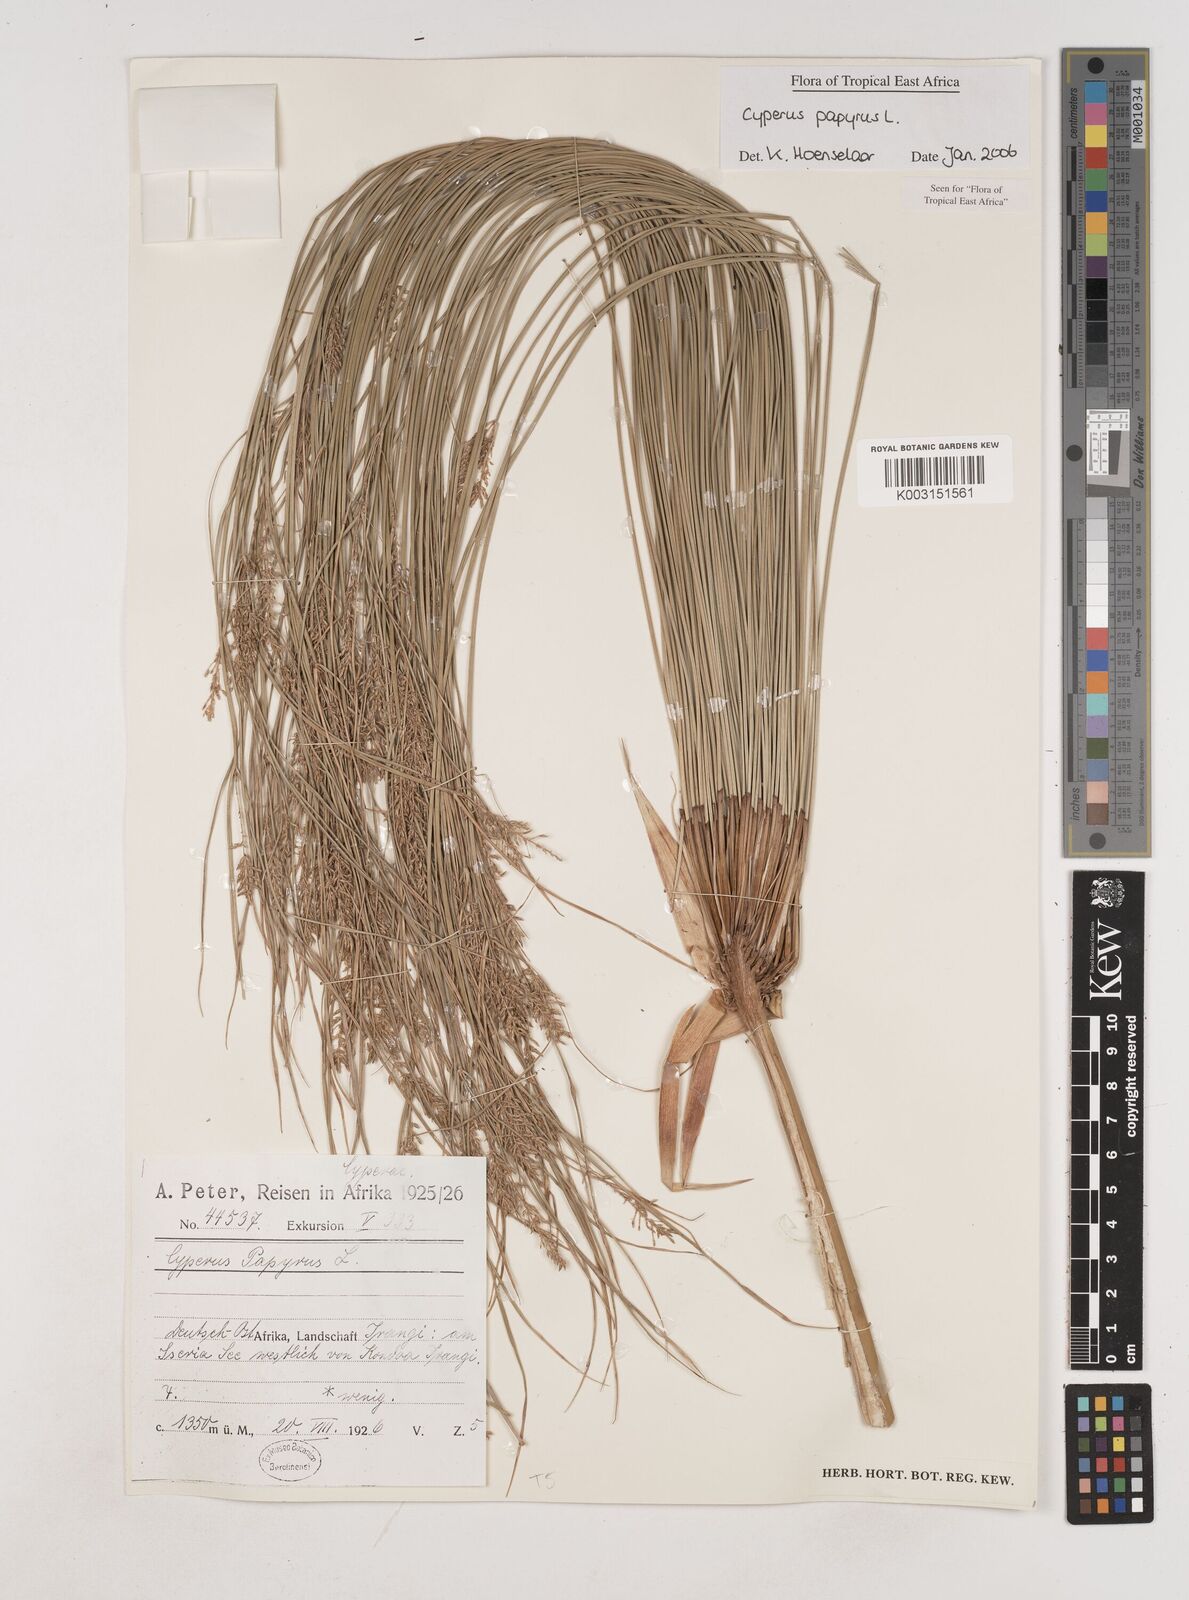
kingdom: Plantae
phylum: Tracheophyta
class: Liliopsida
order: Poales
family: Cyperaceae
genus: Cyperus
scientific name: Cyperus papyrus
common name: Papyrus
